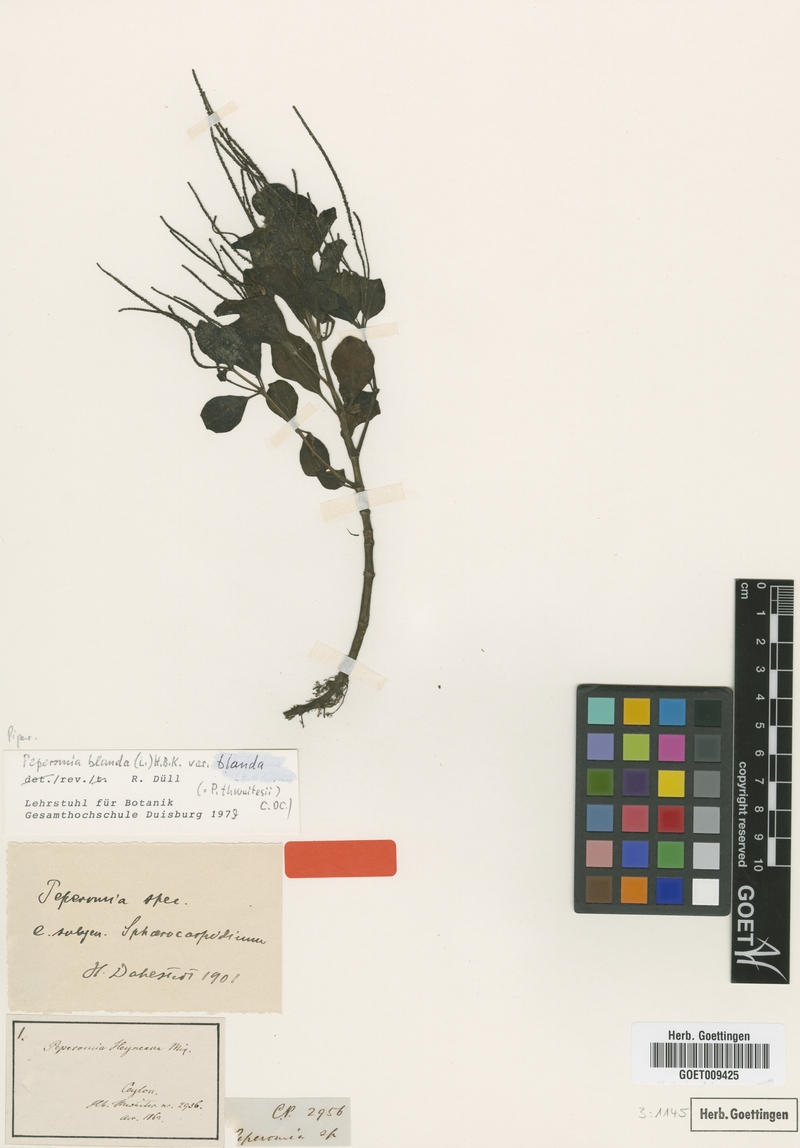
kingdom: Plantae
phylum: Tracheophyta
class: Magnoliopsida
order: Piperales
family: Piperaceae
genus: Peperomia
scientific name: Peperomia blanda
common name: Arid-land peperomia
